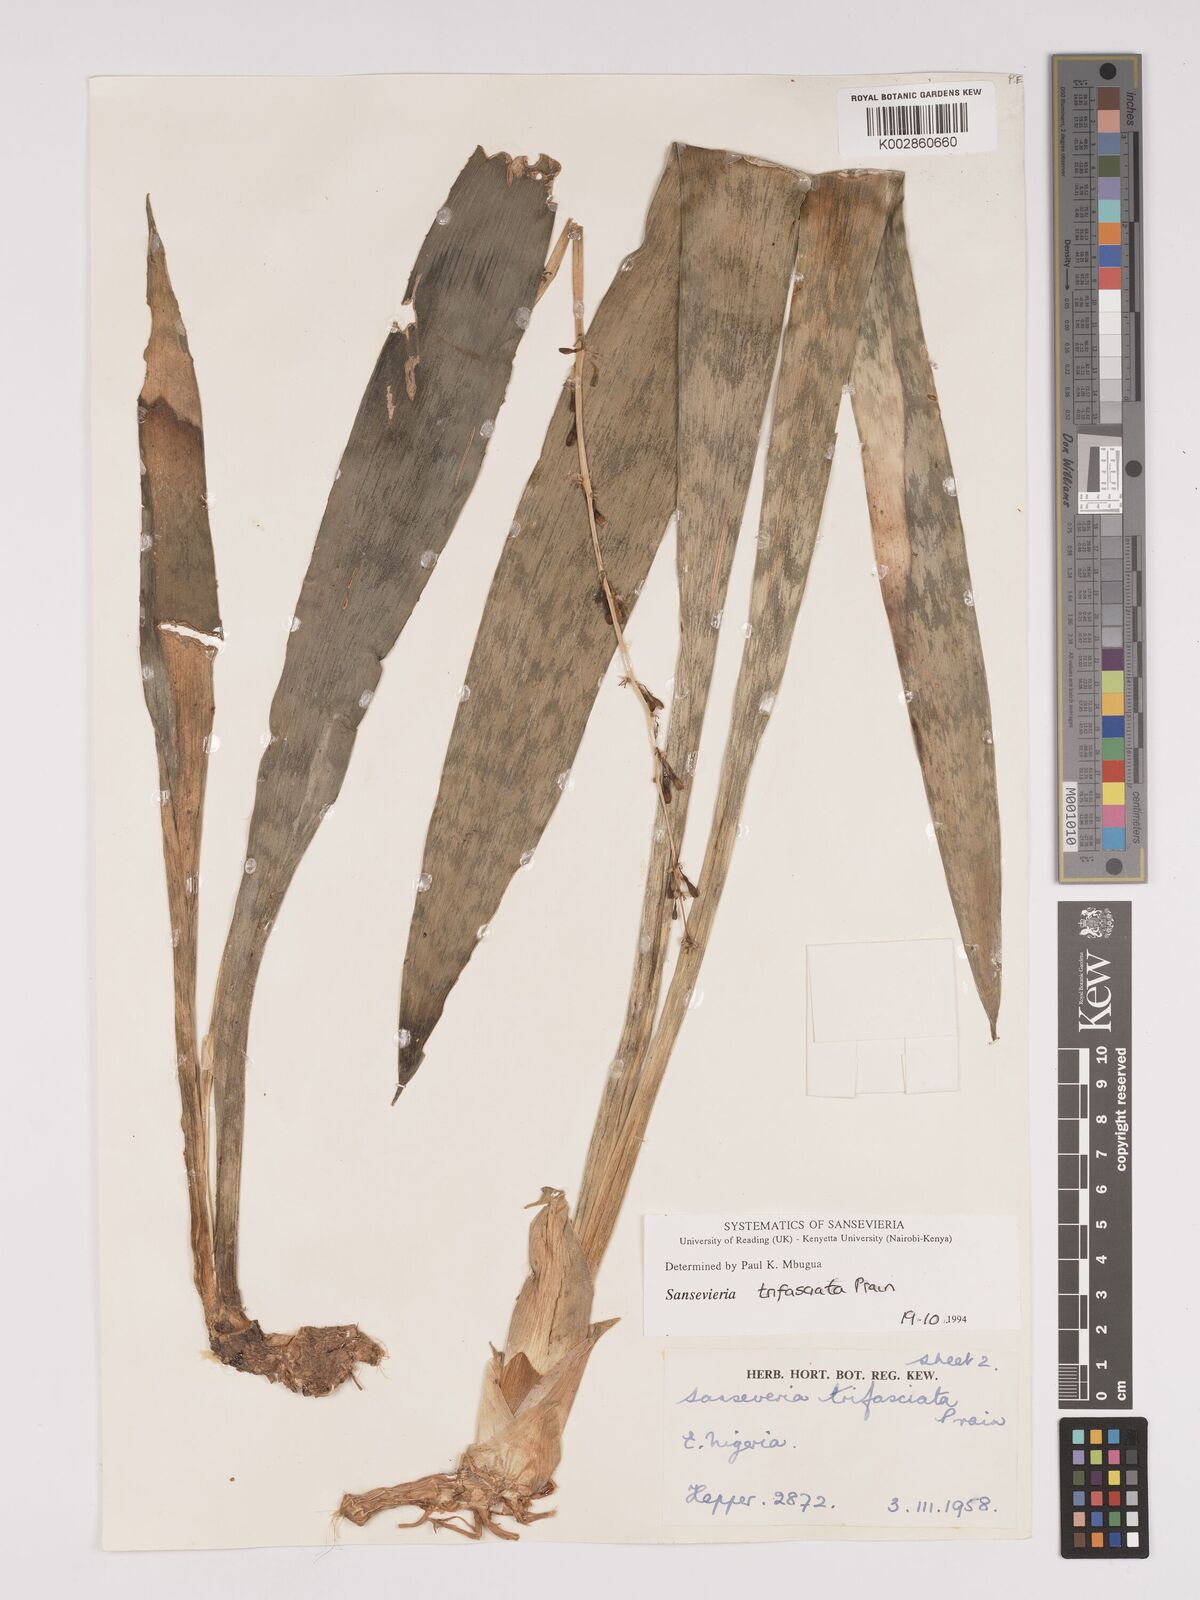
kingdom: Plantae
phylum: Tracheophyta
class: Liliopsida
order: Asparagales
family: Asparagaceae
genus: Dracaena
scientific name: Dracaena trifasciata
